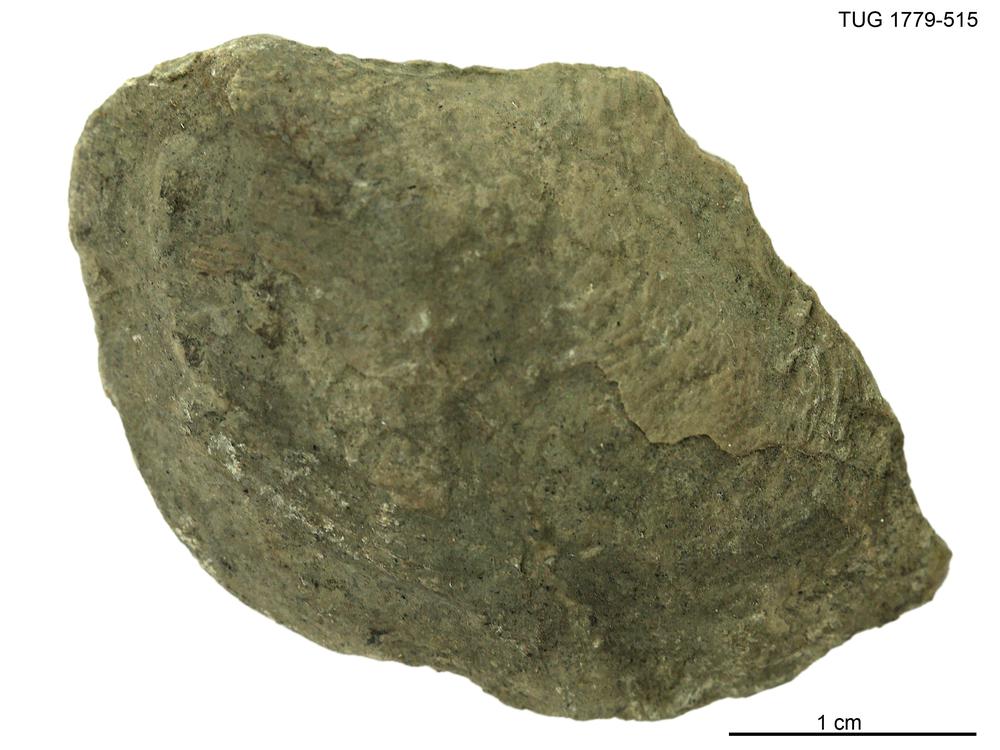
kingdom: Animalia
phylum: Mollusca
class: Bivalvia
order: Ostreida
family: Pterineidae
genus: Pteronitella
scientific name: Pteronitella retroflexa
